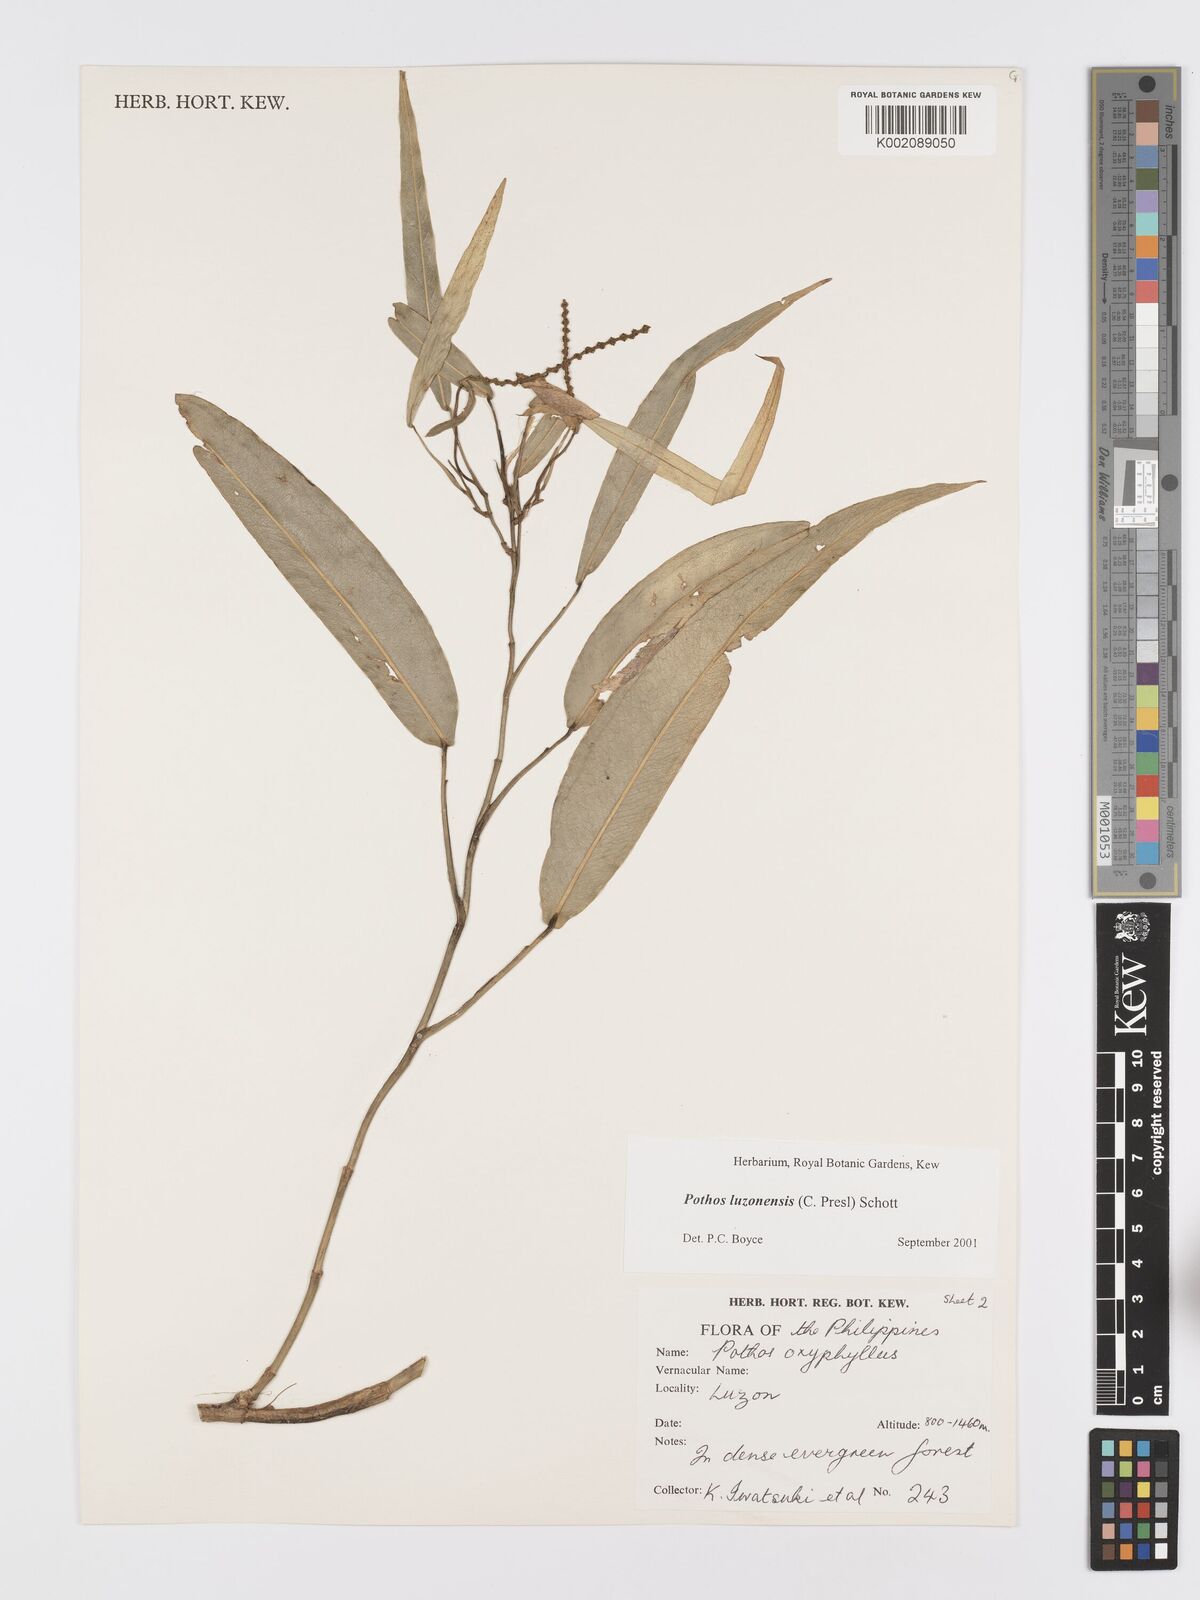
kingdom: Plantae
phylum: Tracheophyta
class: Liliopsida
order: Alismatales
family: Araceae
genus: Pothos
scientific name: Pothos luzonensis
